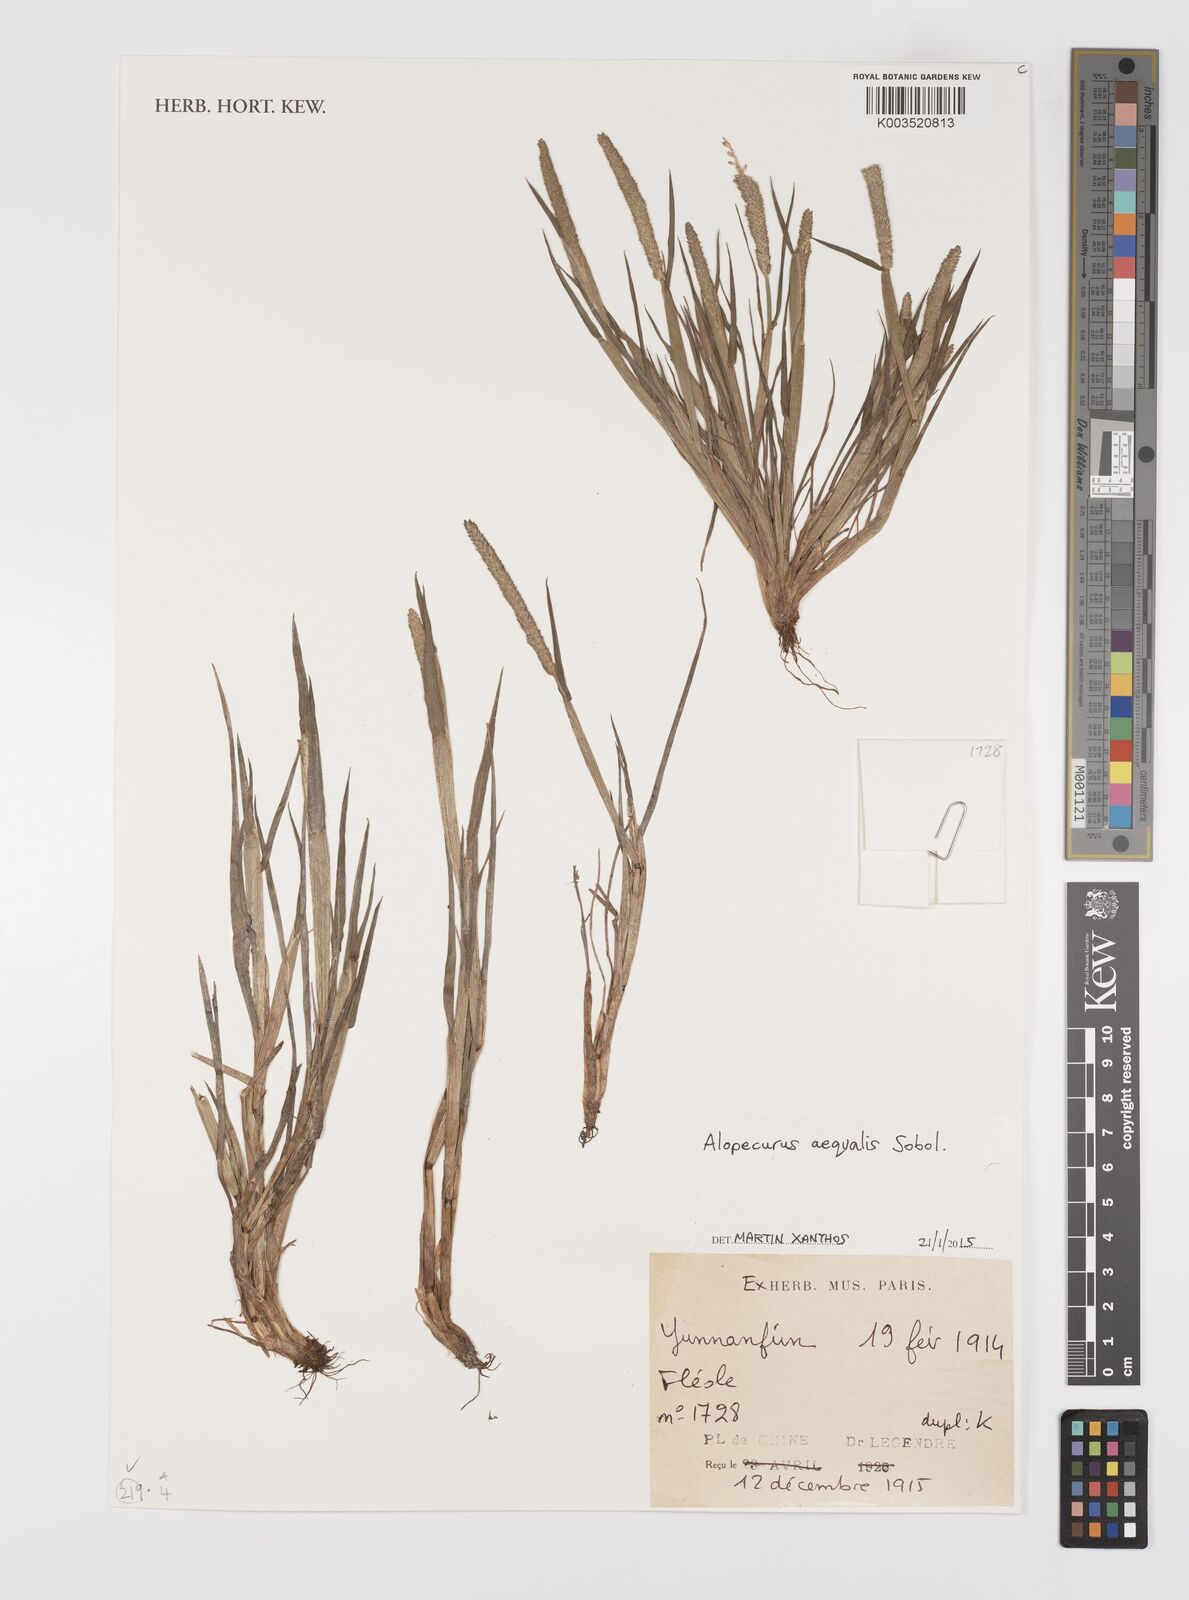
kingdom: Plantae
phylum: Tracheophyta
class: Liliopsida
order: Poales
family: Poaceae
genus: Alopecurus
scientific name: Alopecurus aequalis
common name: Orange foxtail
